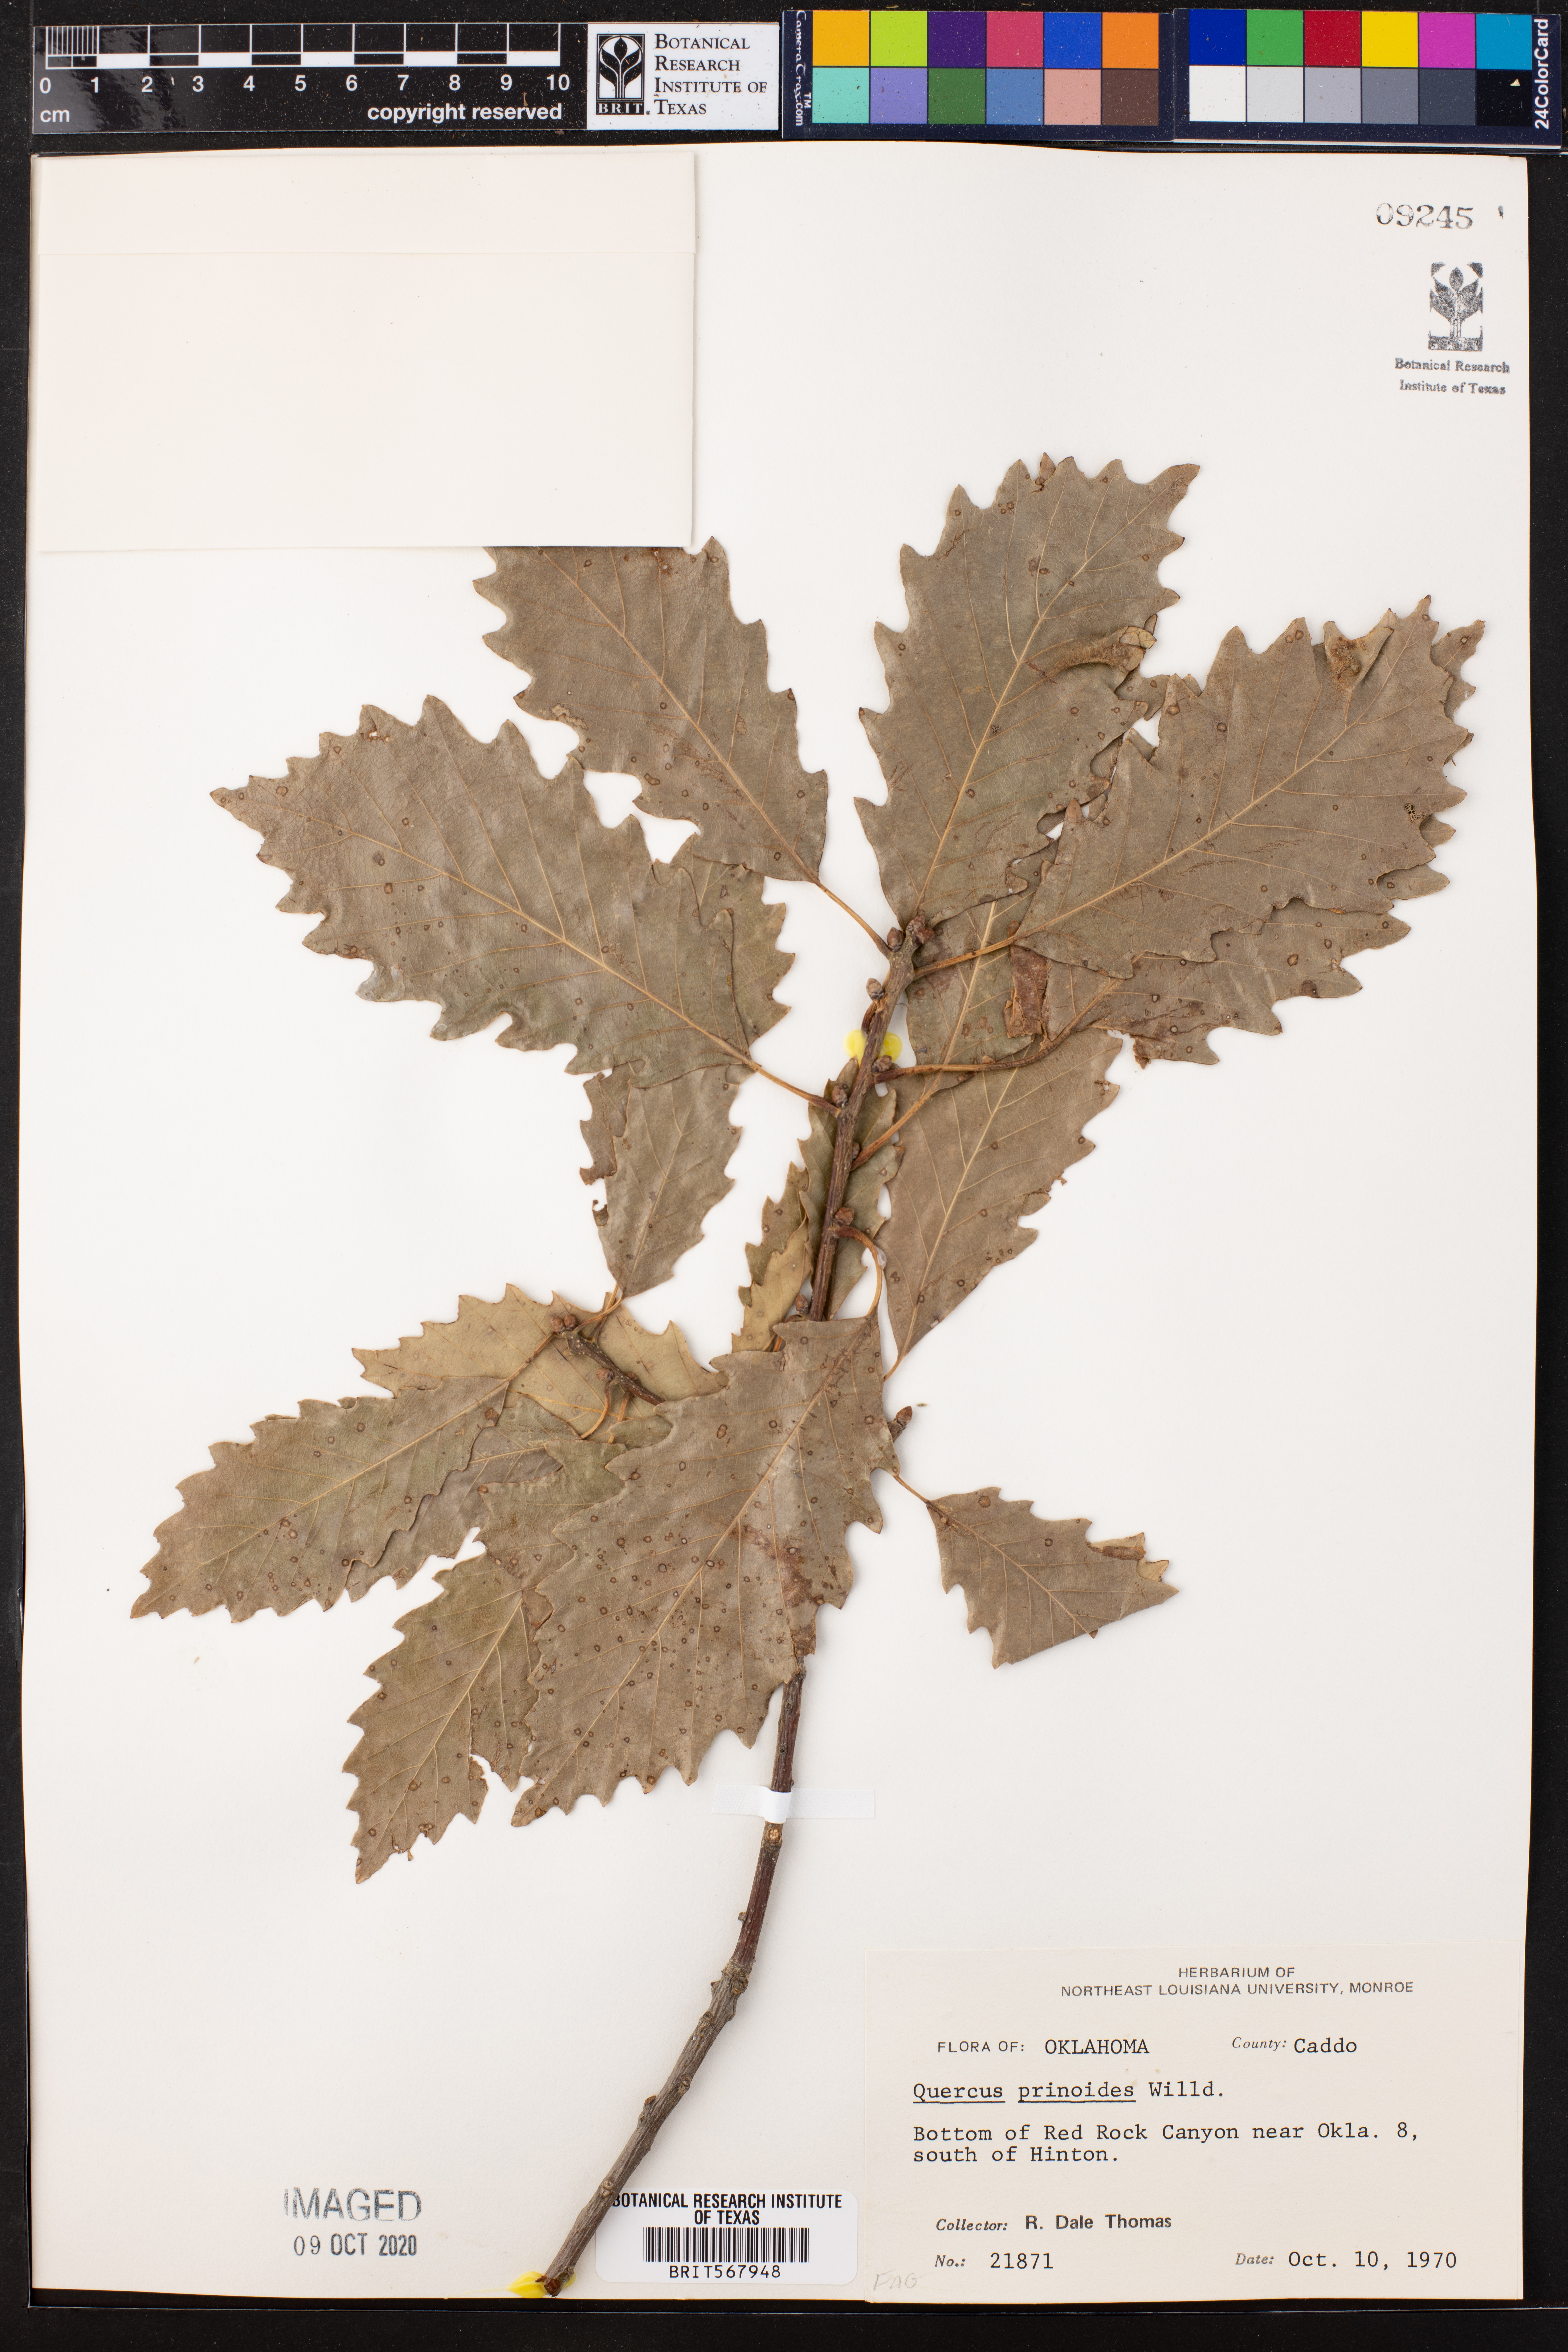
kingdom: Plantae
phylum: Tracheophyta
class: Magnoliopsida
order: Fagales
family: Fagaceae
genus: Quercus
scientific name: Quercus prinoides
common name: Dwarf chinkapin oak
